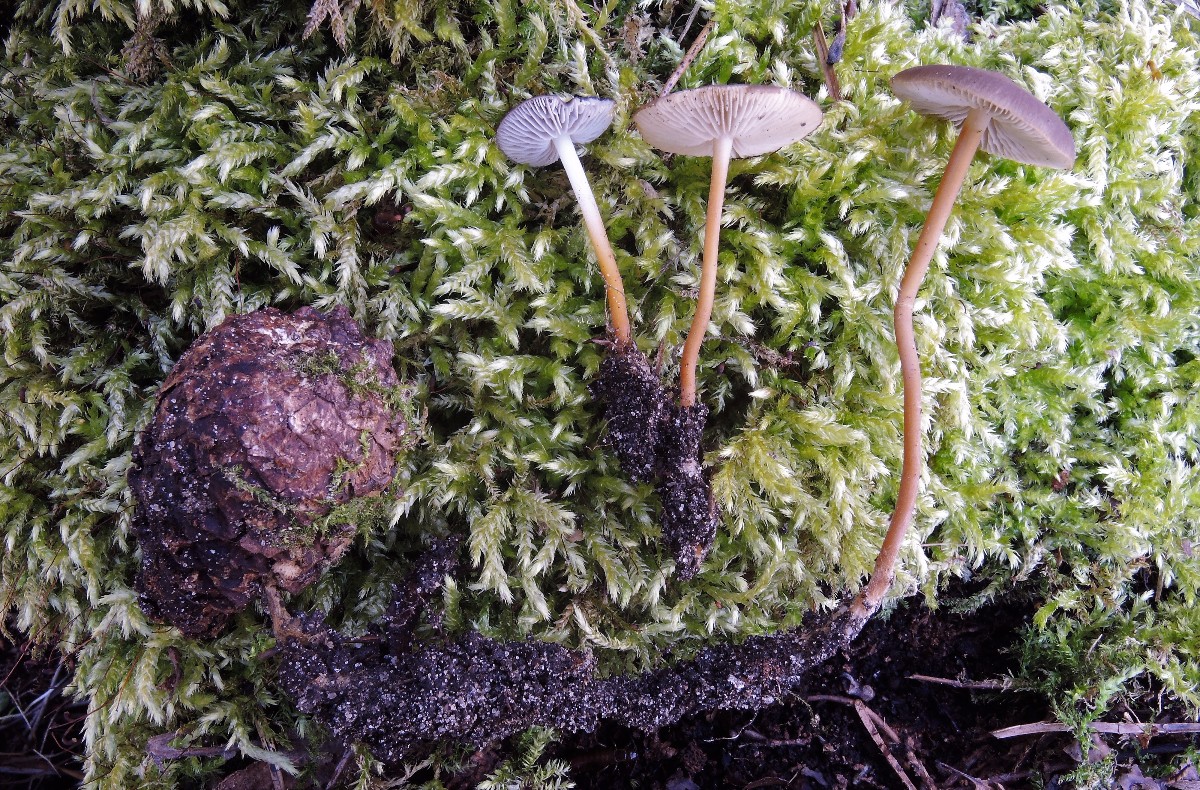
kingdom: Fungi
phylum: Basidiomycota
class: Agaricomycetes
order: Agaricales
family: Physalacriaceae
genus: Strobilurus
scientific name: Strobilurus tenacellus
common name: sommer-koglehat
